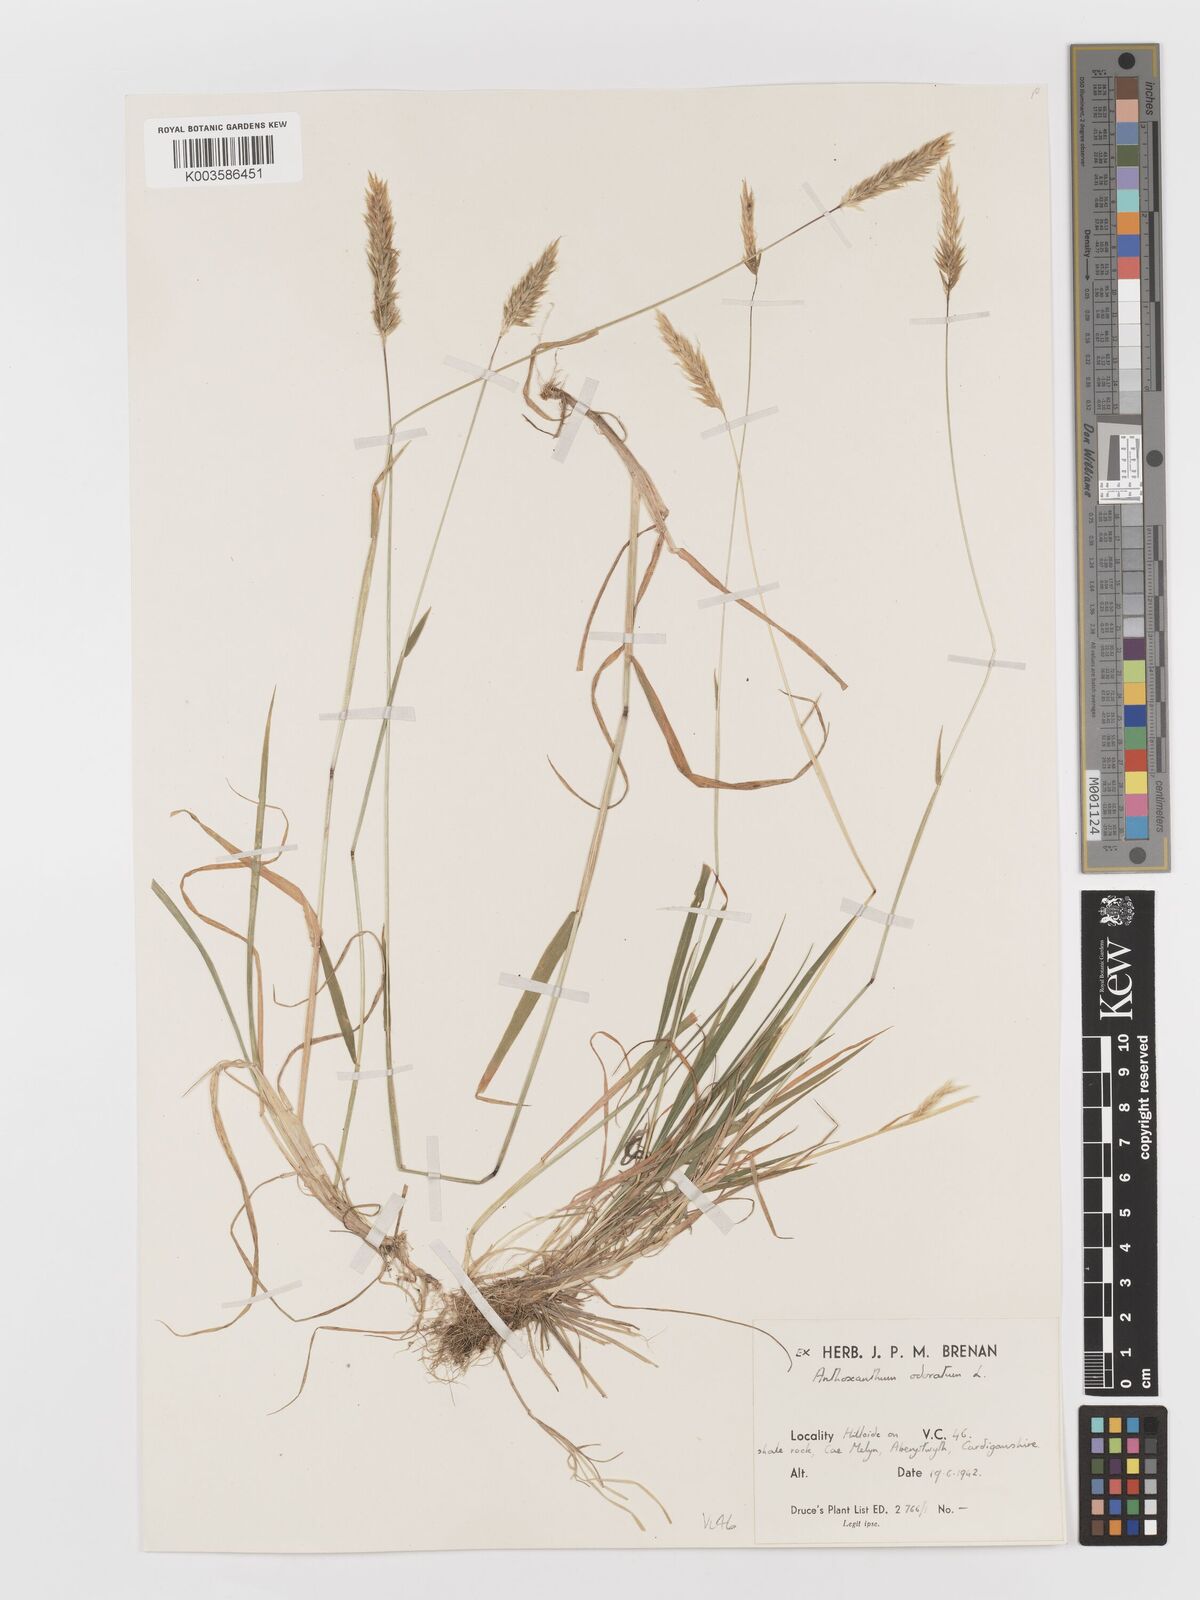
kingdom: Plantae
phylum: Tracheophyta
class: Liliopsida
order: Poales
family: Poaceae
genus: Anthoxanthum
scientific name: Anthoxanthum odoratum
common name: Sweet vernalgrass
